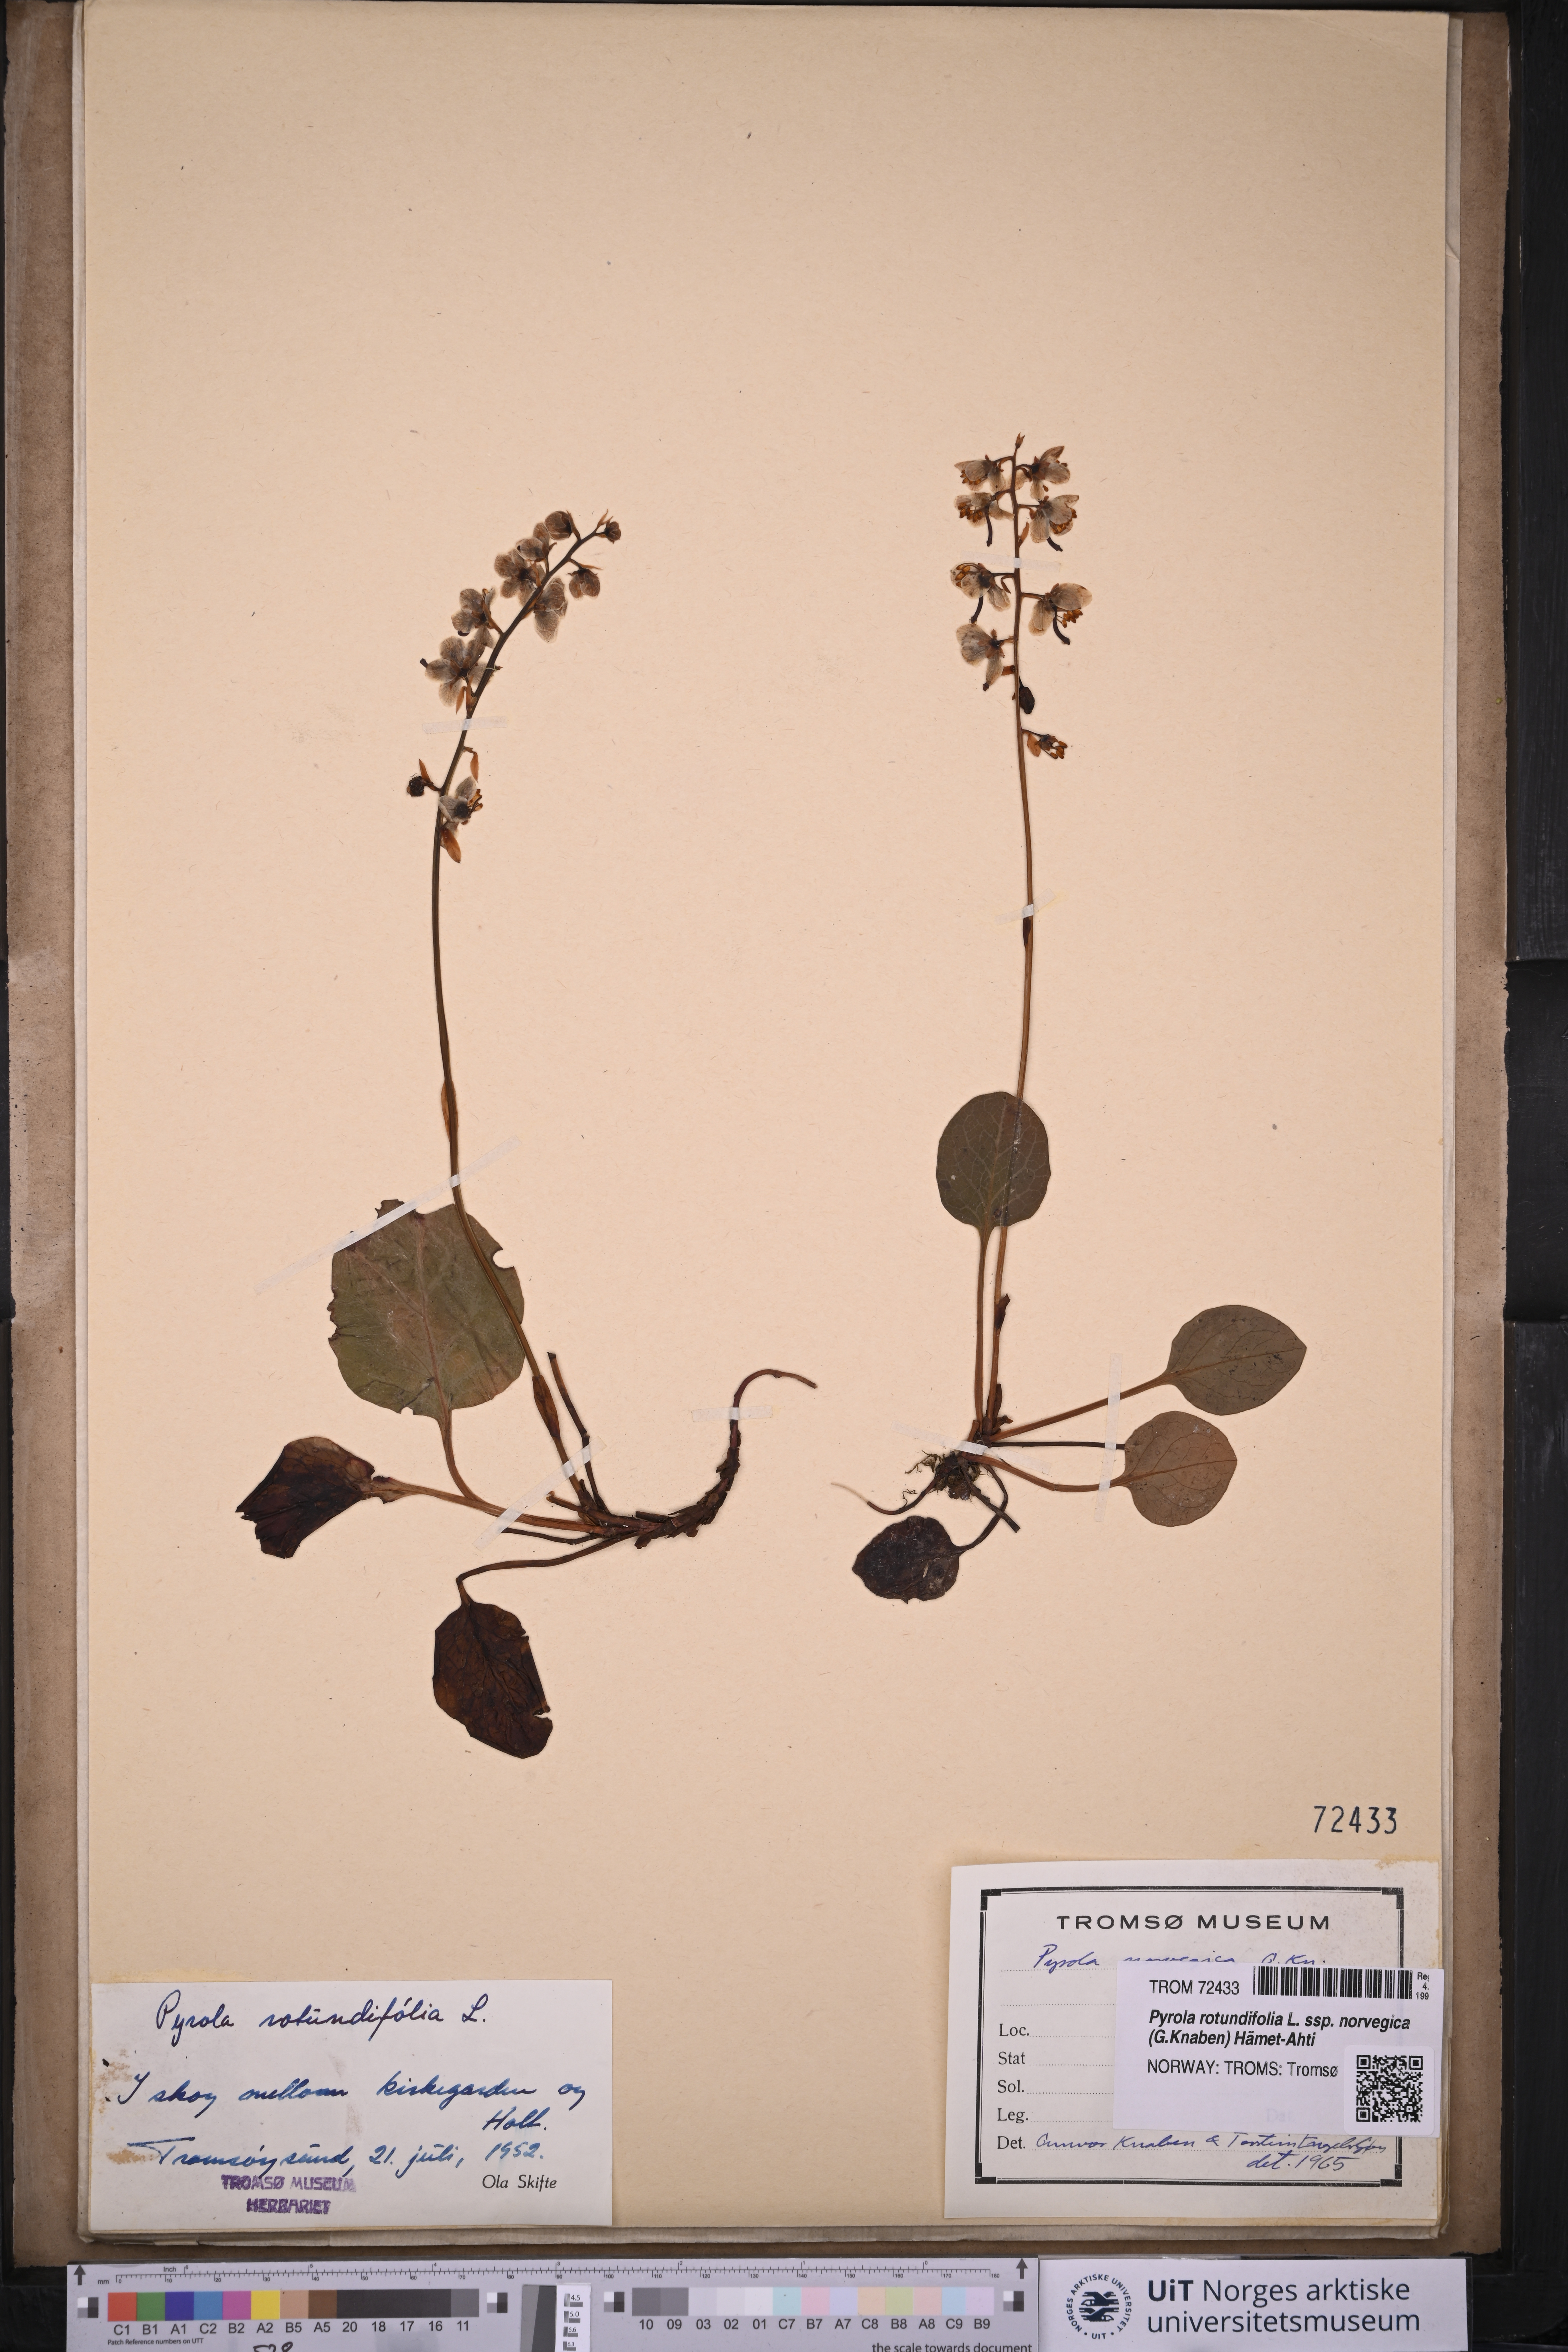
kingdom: Plantae
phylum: Tracheophyta
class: Magnoliopsida
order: Ericales
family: Ericaceae
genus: Pyrola
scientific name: Pyrola rotundifolia
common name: Round-leaved wintergreen
